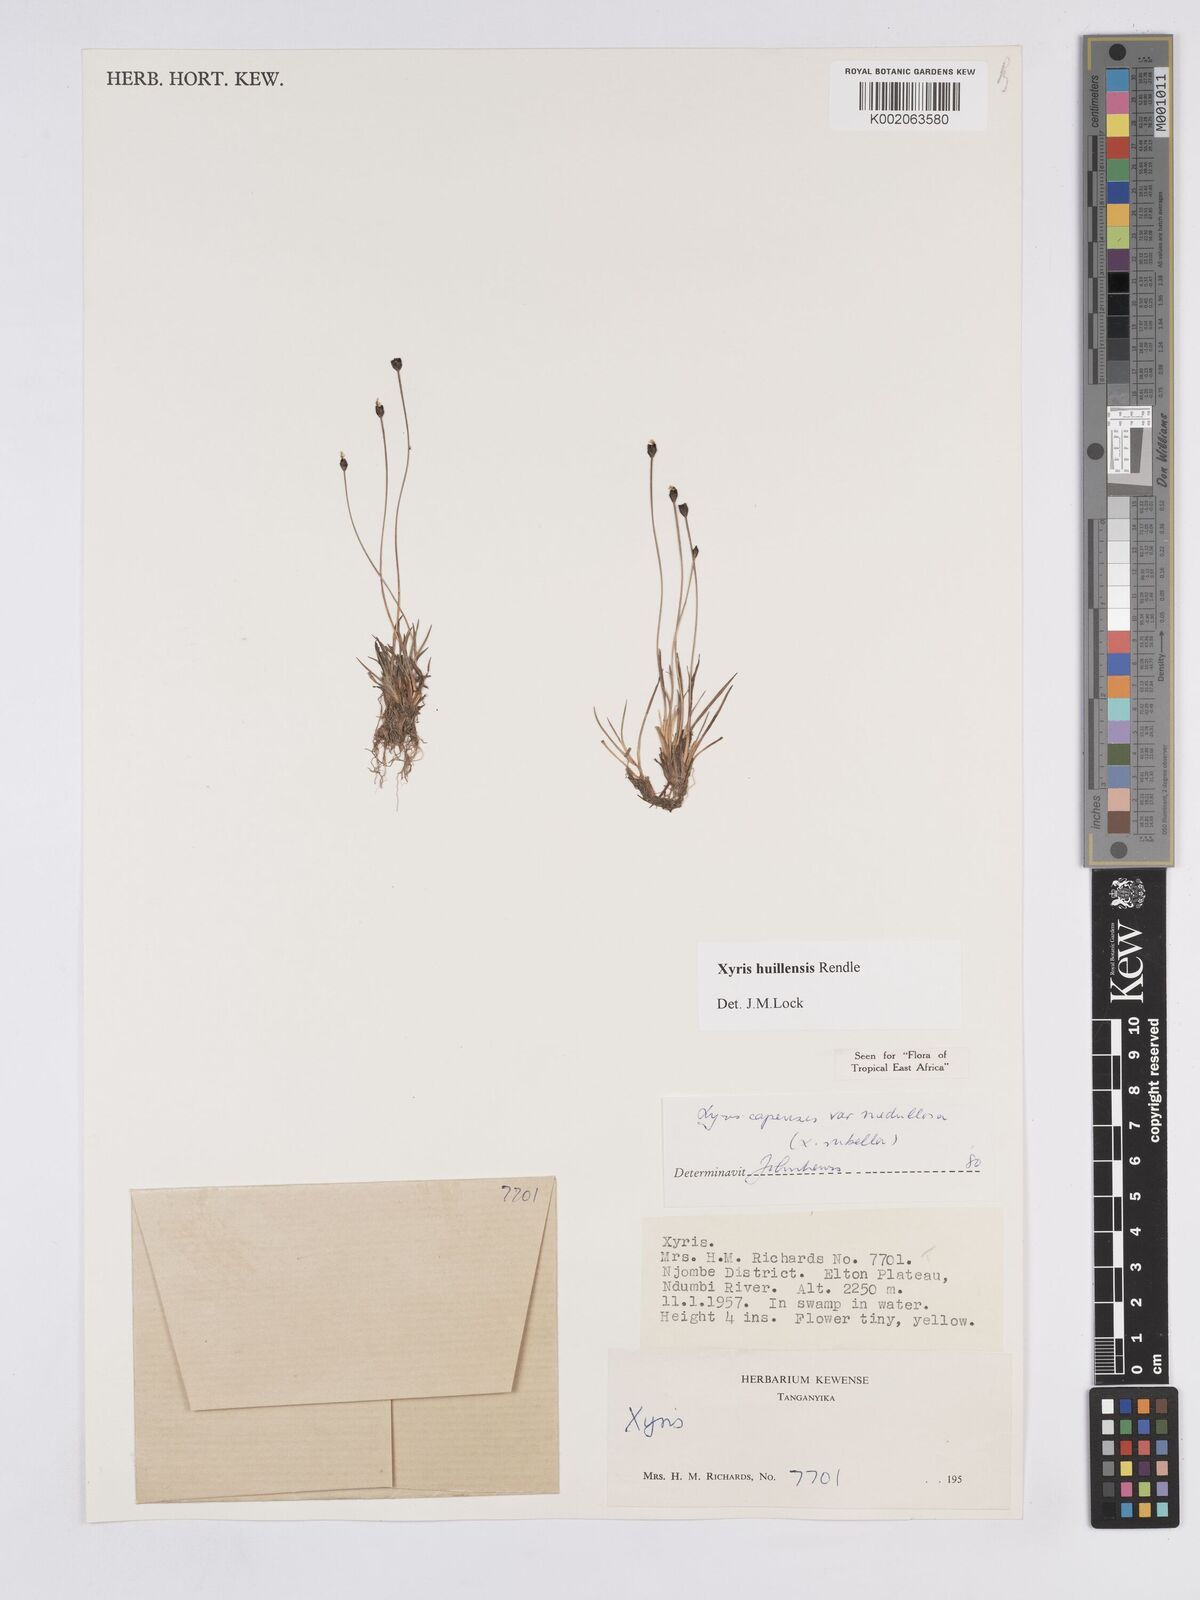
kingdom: Plantae
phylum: Tracheophyta
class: Liliopsida
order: Poales
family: Xyridaceae
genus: Xyris
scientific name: Xyris huillensis
